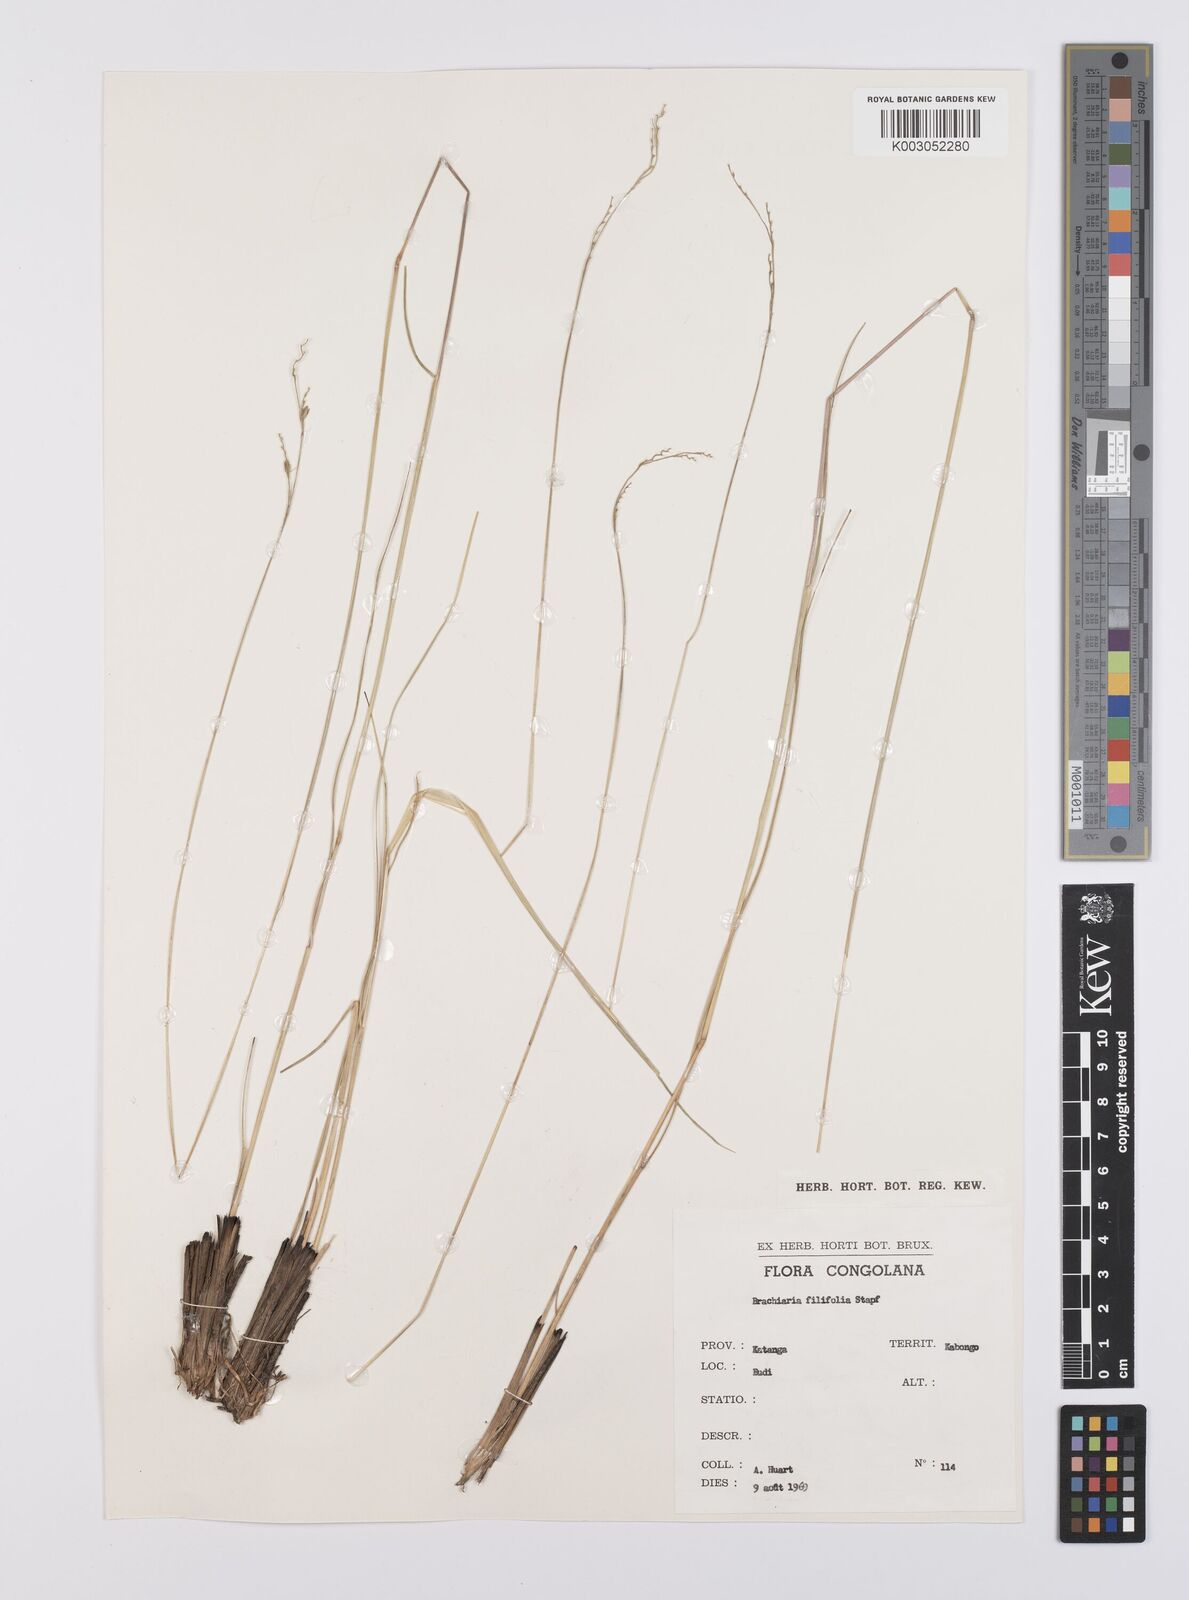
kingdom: Plantae
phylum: Tracheophyta
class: Liliopsida
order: Poales
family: Poaceae
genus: Urochloa
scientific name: Urochloa subulifolia
